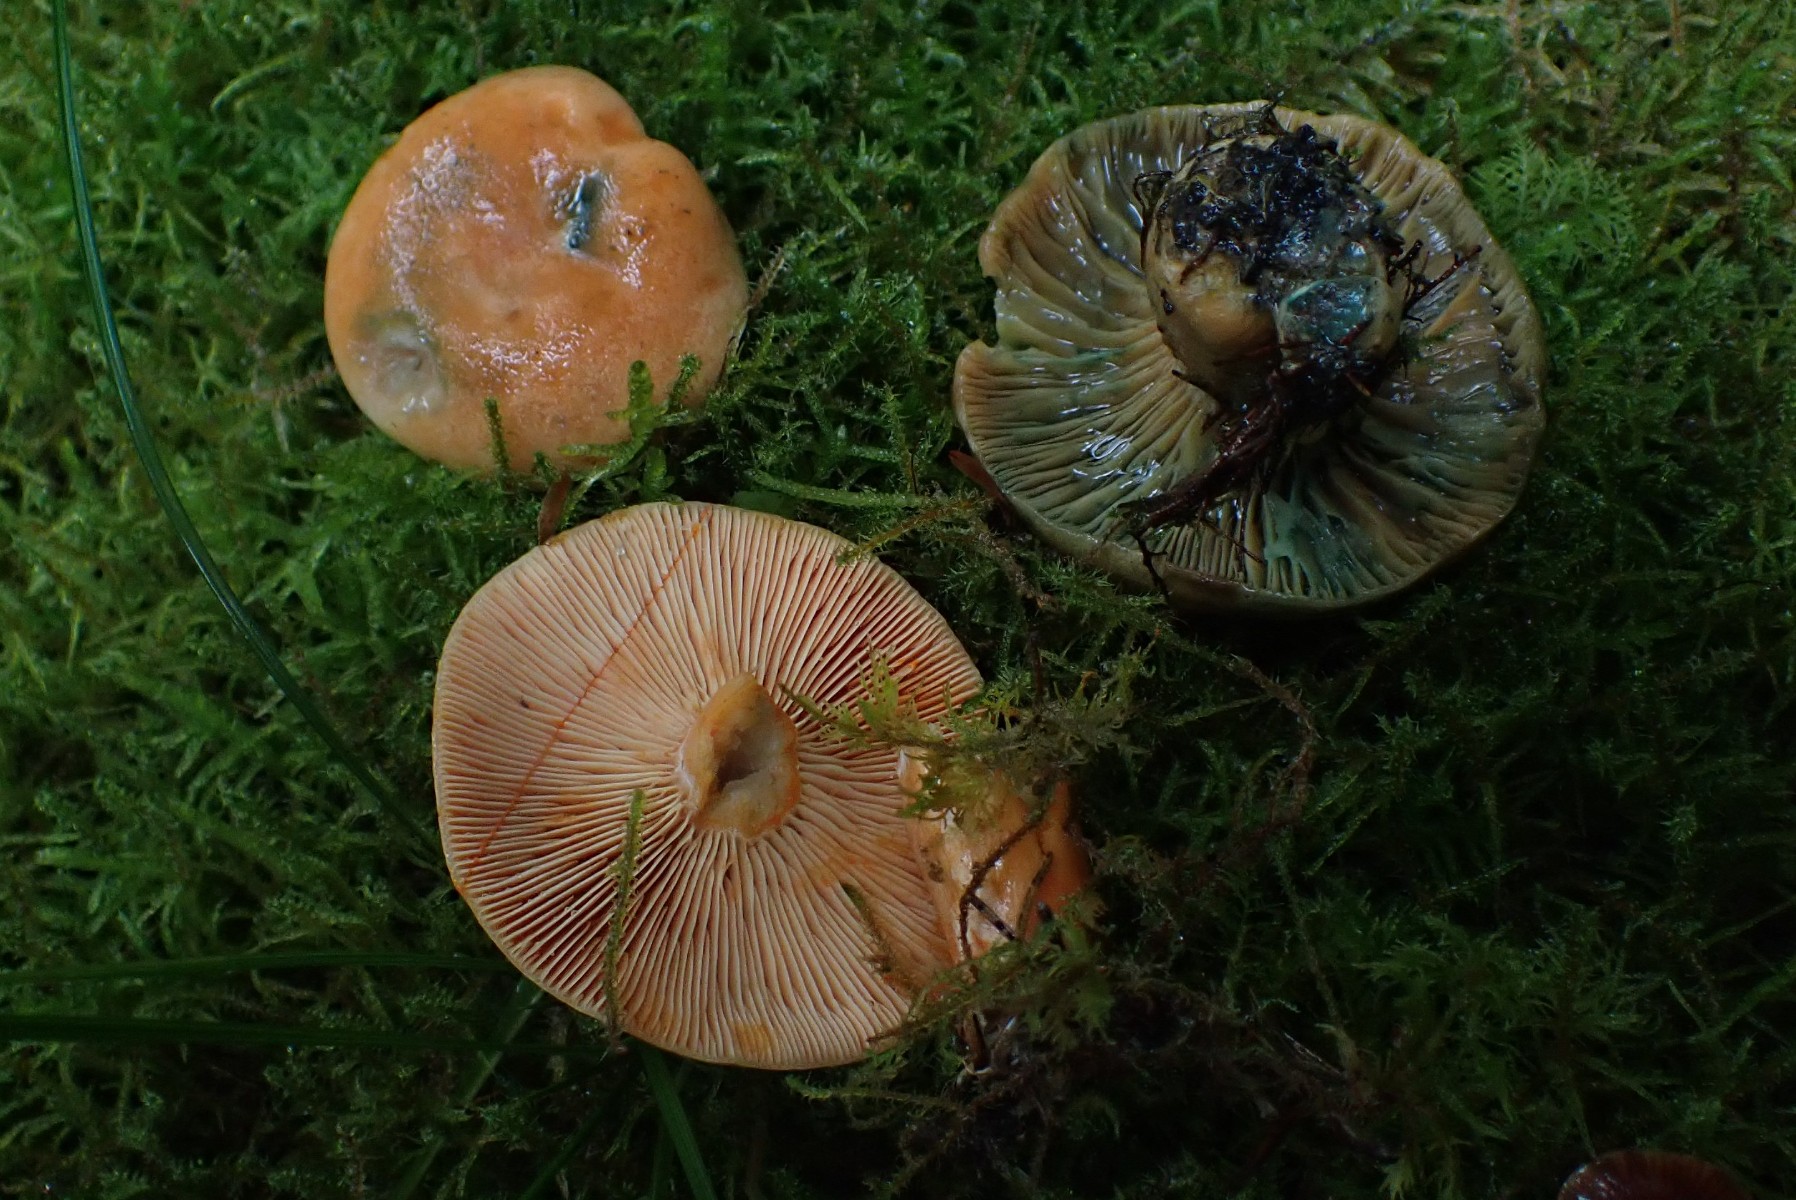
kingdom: Fungi
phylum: Basidiomycota
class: Agaricomycetes
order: Russulales
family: Russulaceae
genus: Lactarius
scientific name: Lactarius deterrimus
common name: gran-mælkehat
